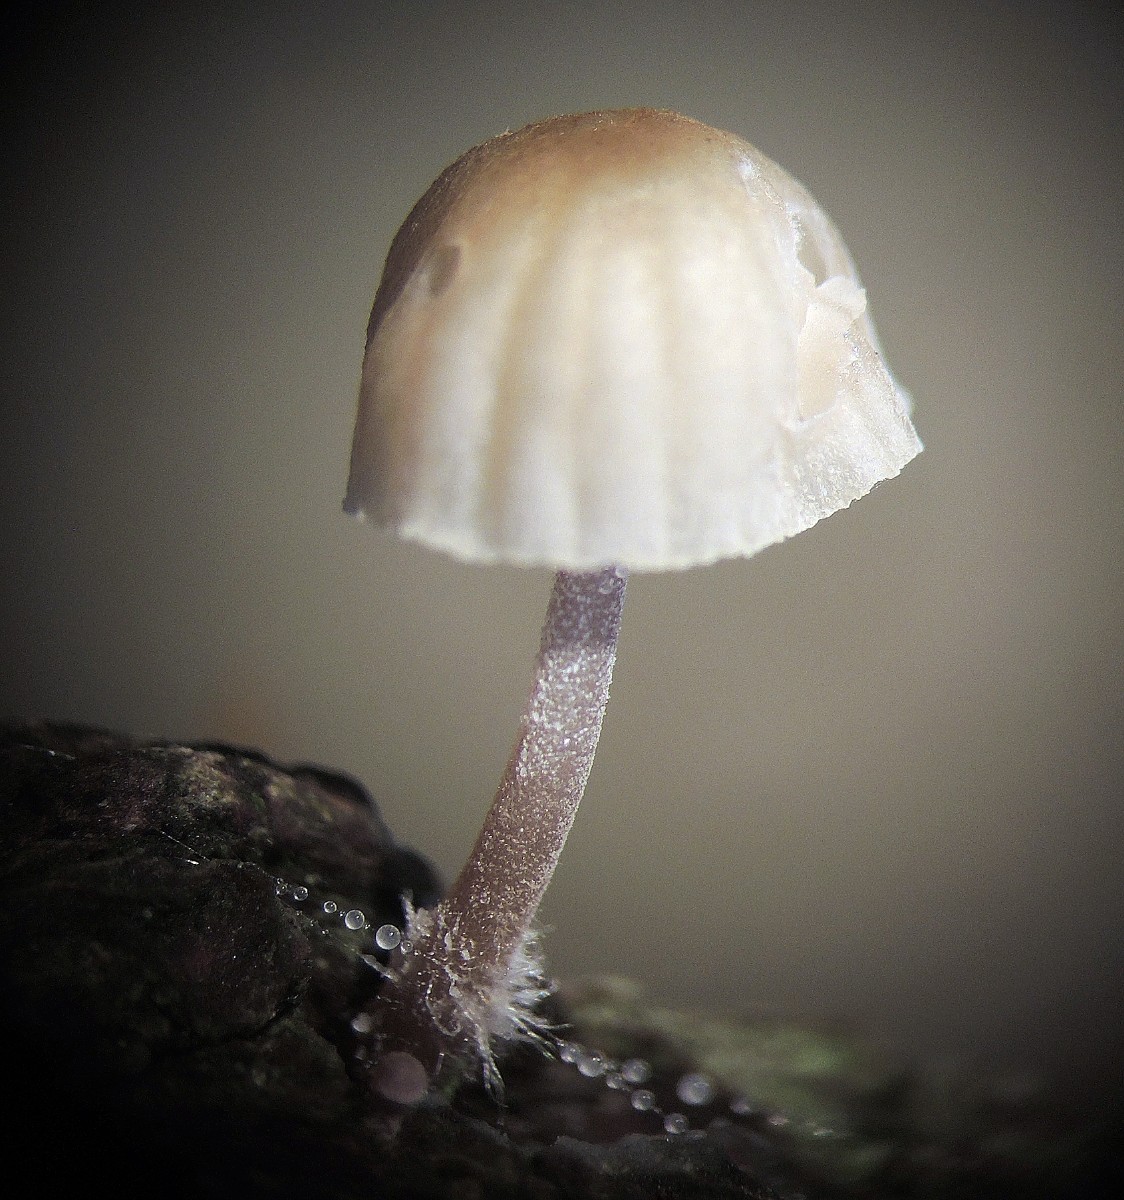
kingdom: Fungi
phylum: Basidiomycota
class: Agaricomycetes
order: Agaricales
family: Mycenaceae
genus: Mycena
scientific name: Mycena meliigena
